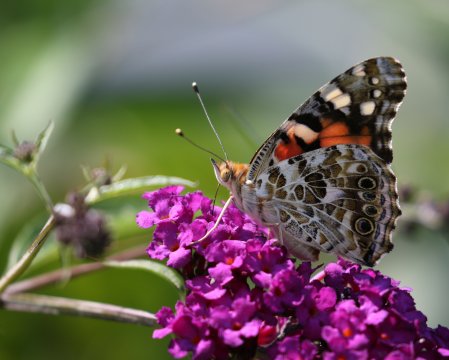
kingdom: Animalia
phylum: Arthropoda
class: Insecta
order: Lepidoptera
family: Nymphalidae
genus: Vanessa
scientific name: Vanessa cardui
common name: Painted Lady
